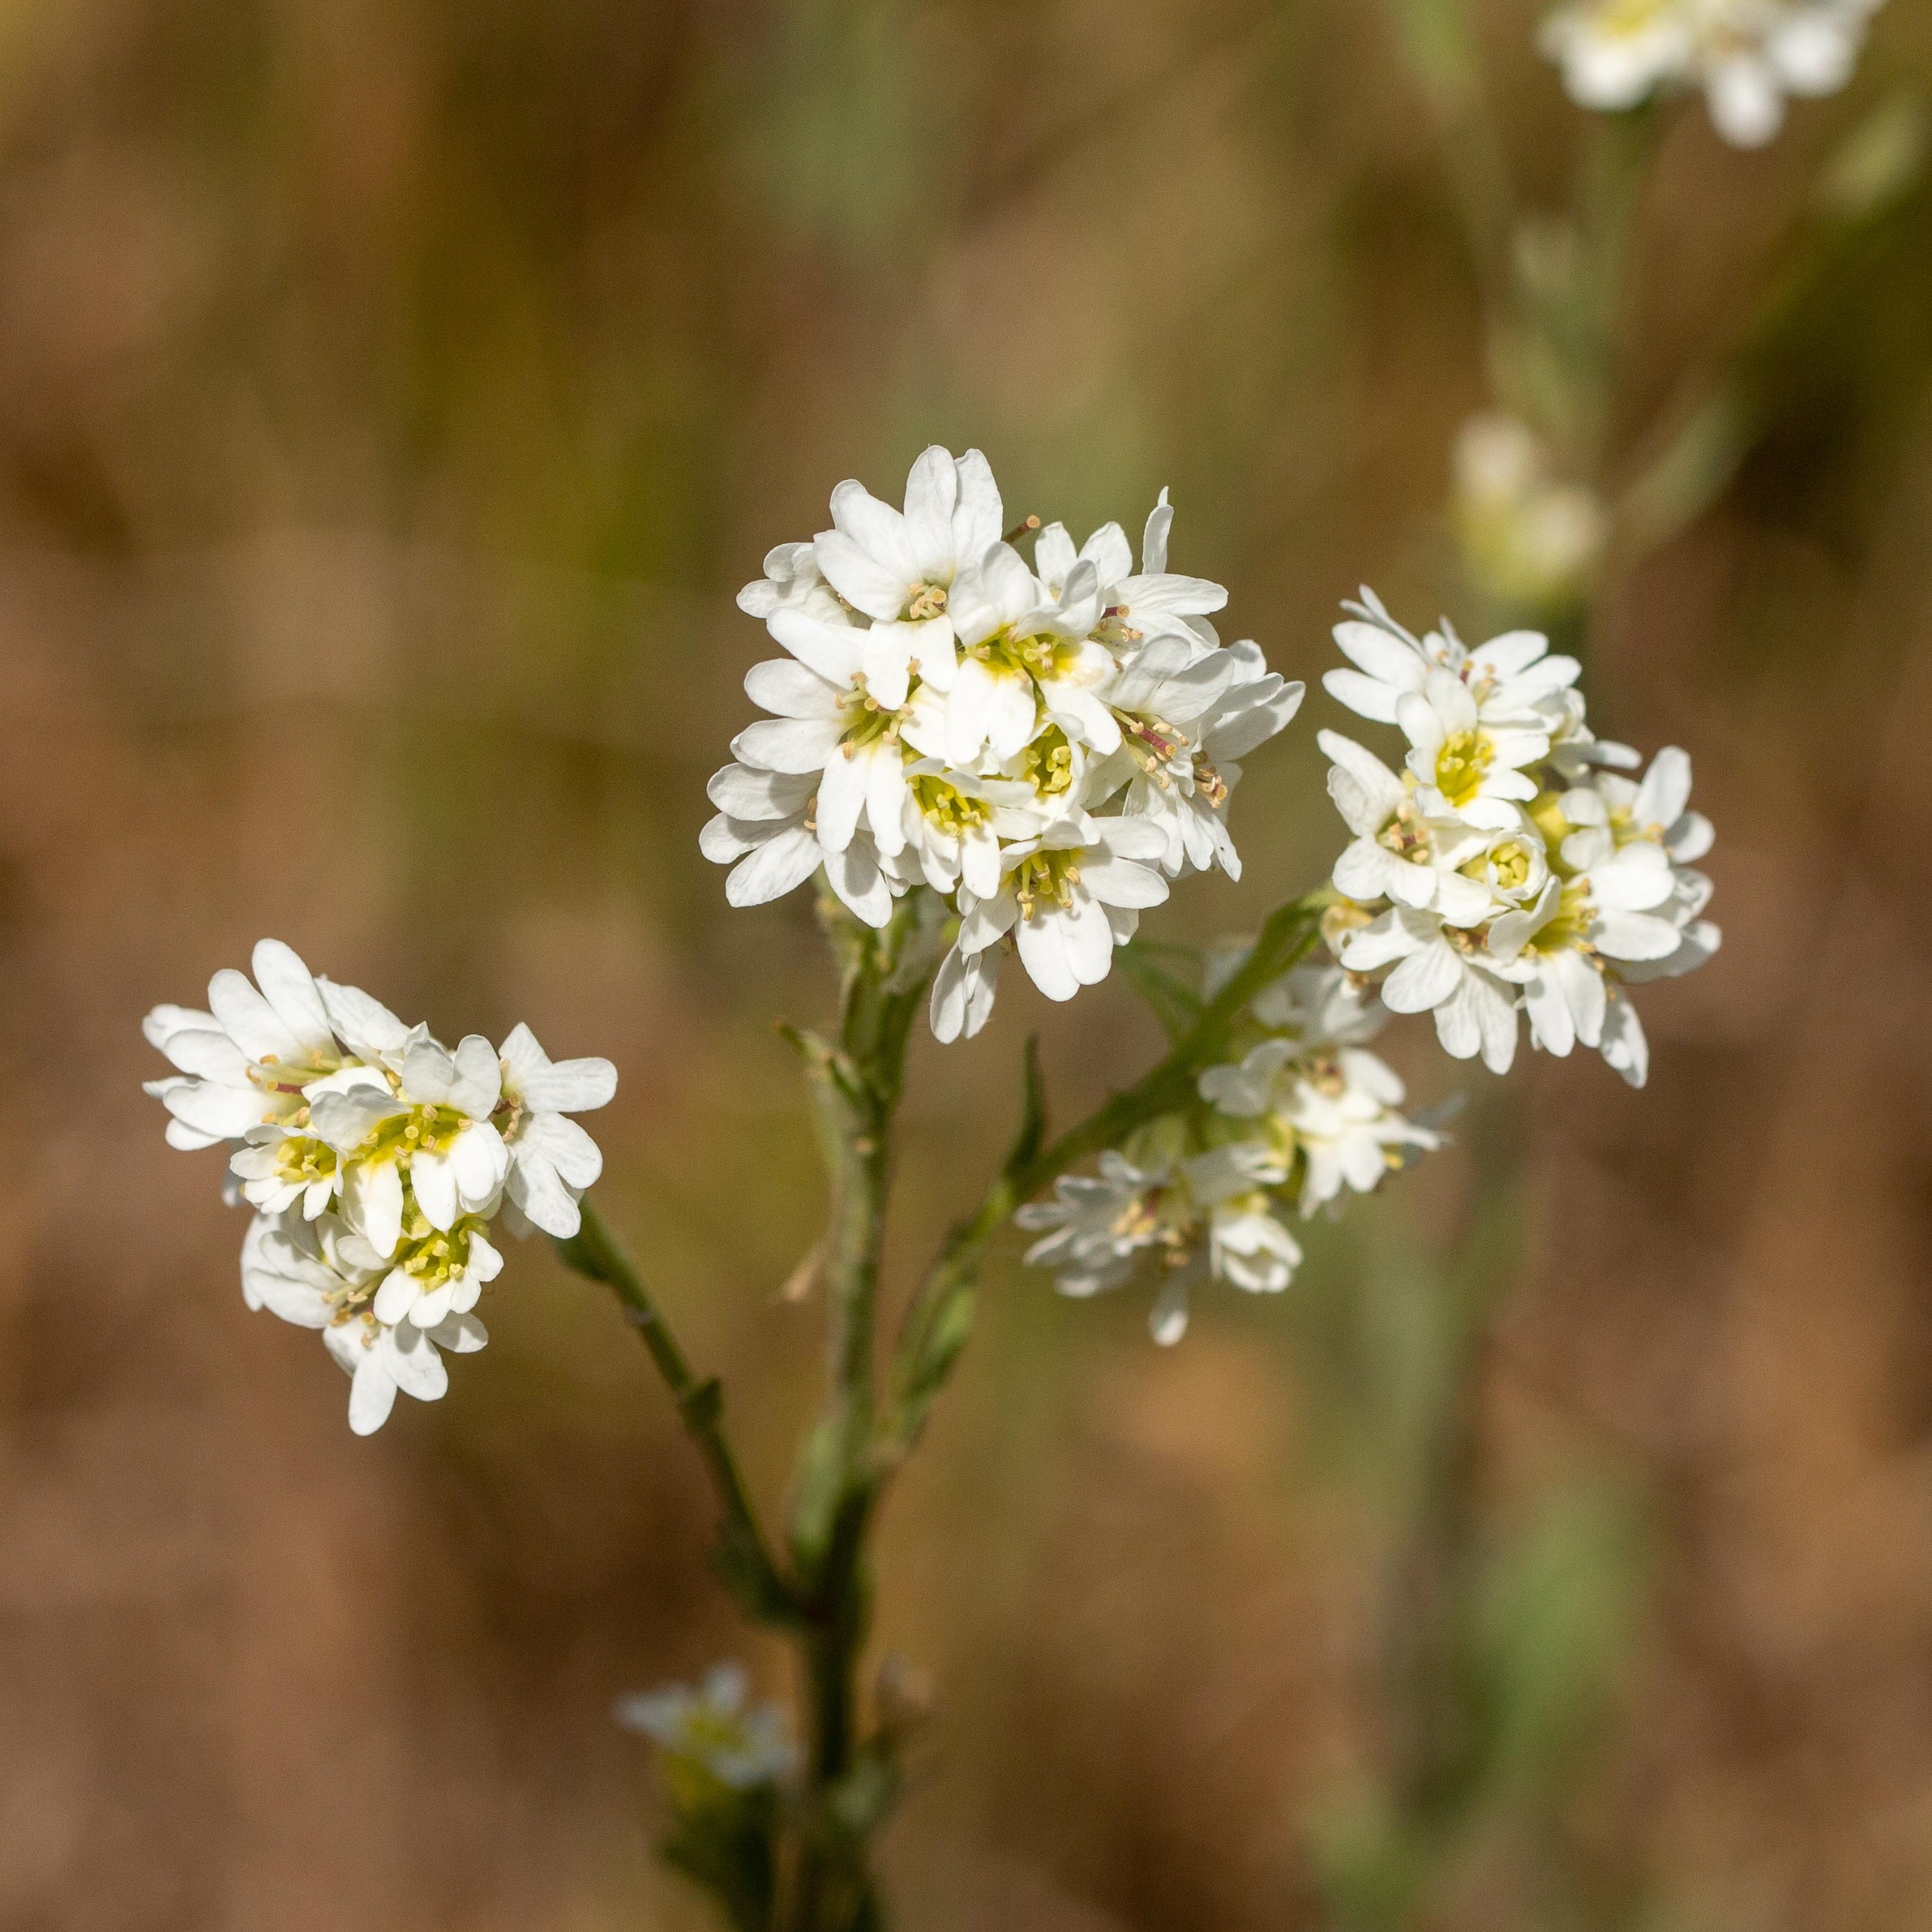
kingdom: Plantae
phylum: Tracheophyta
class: Magnoliopsida
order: Brassicales
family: Brassicaceae
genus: Berteroa
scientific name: Berteroa incana
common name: Kløvplade
